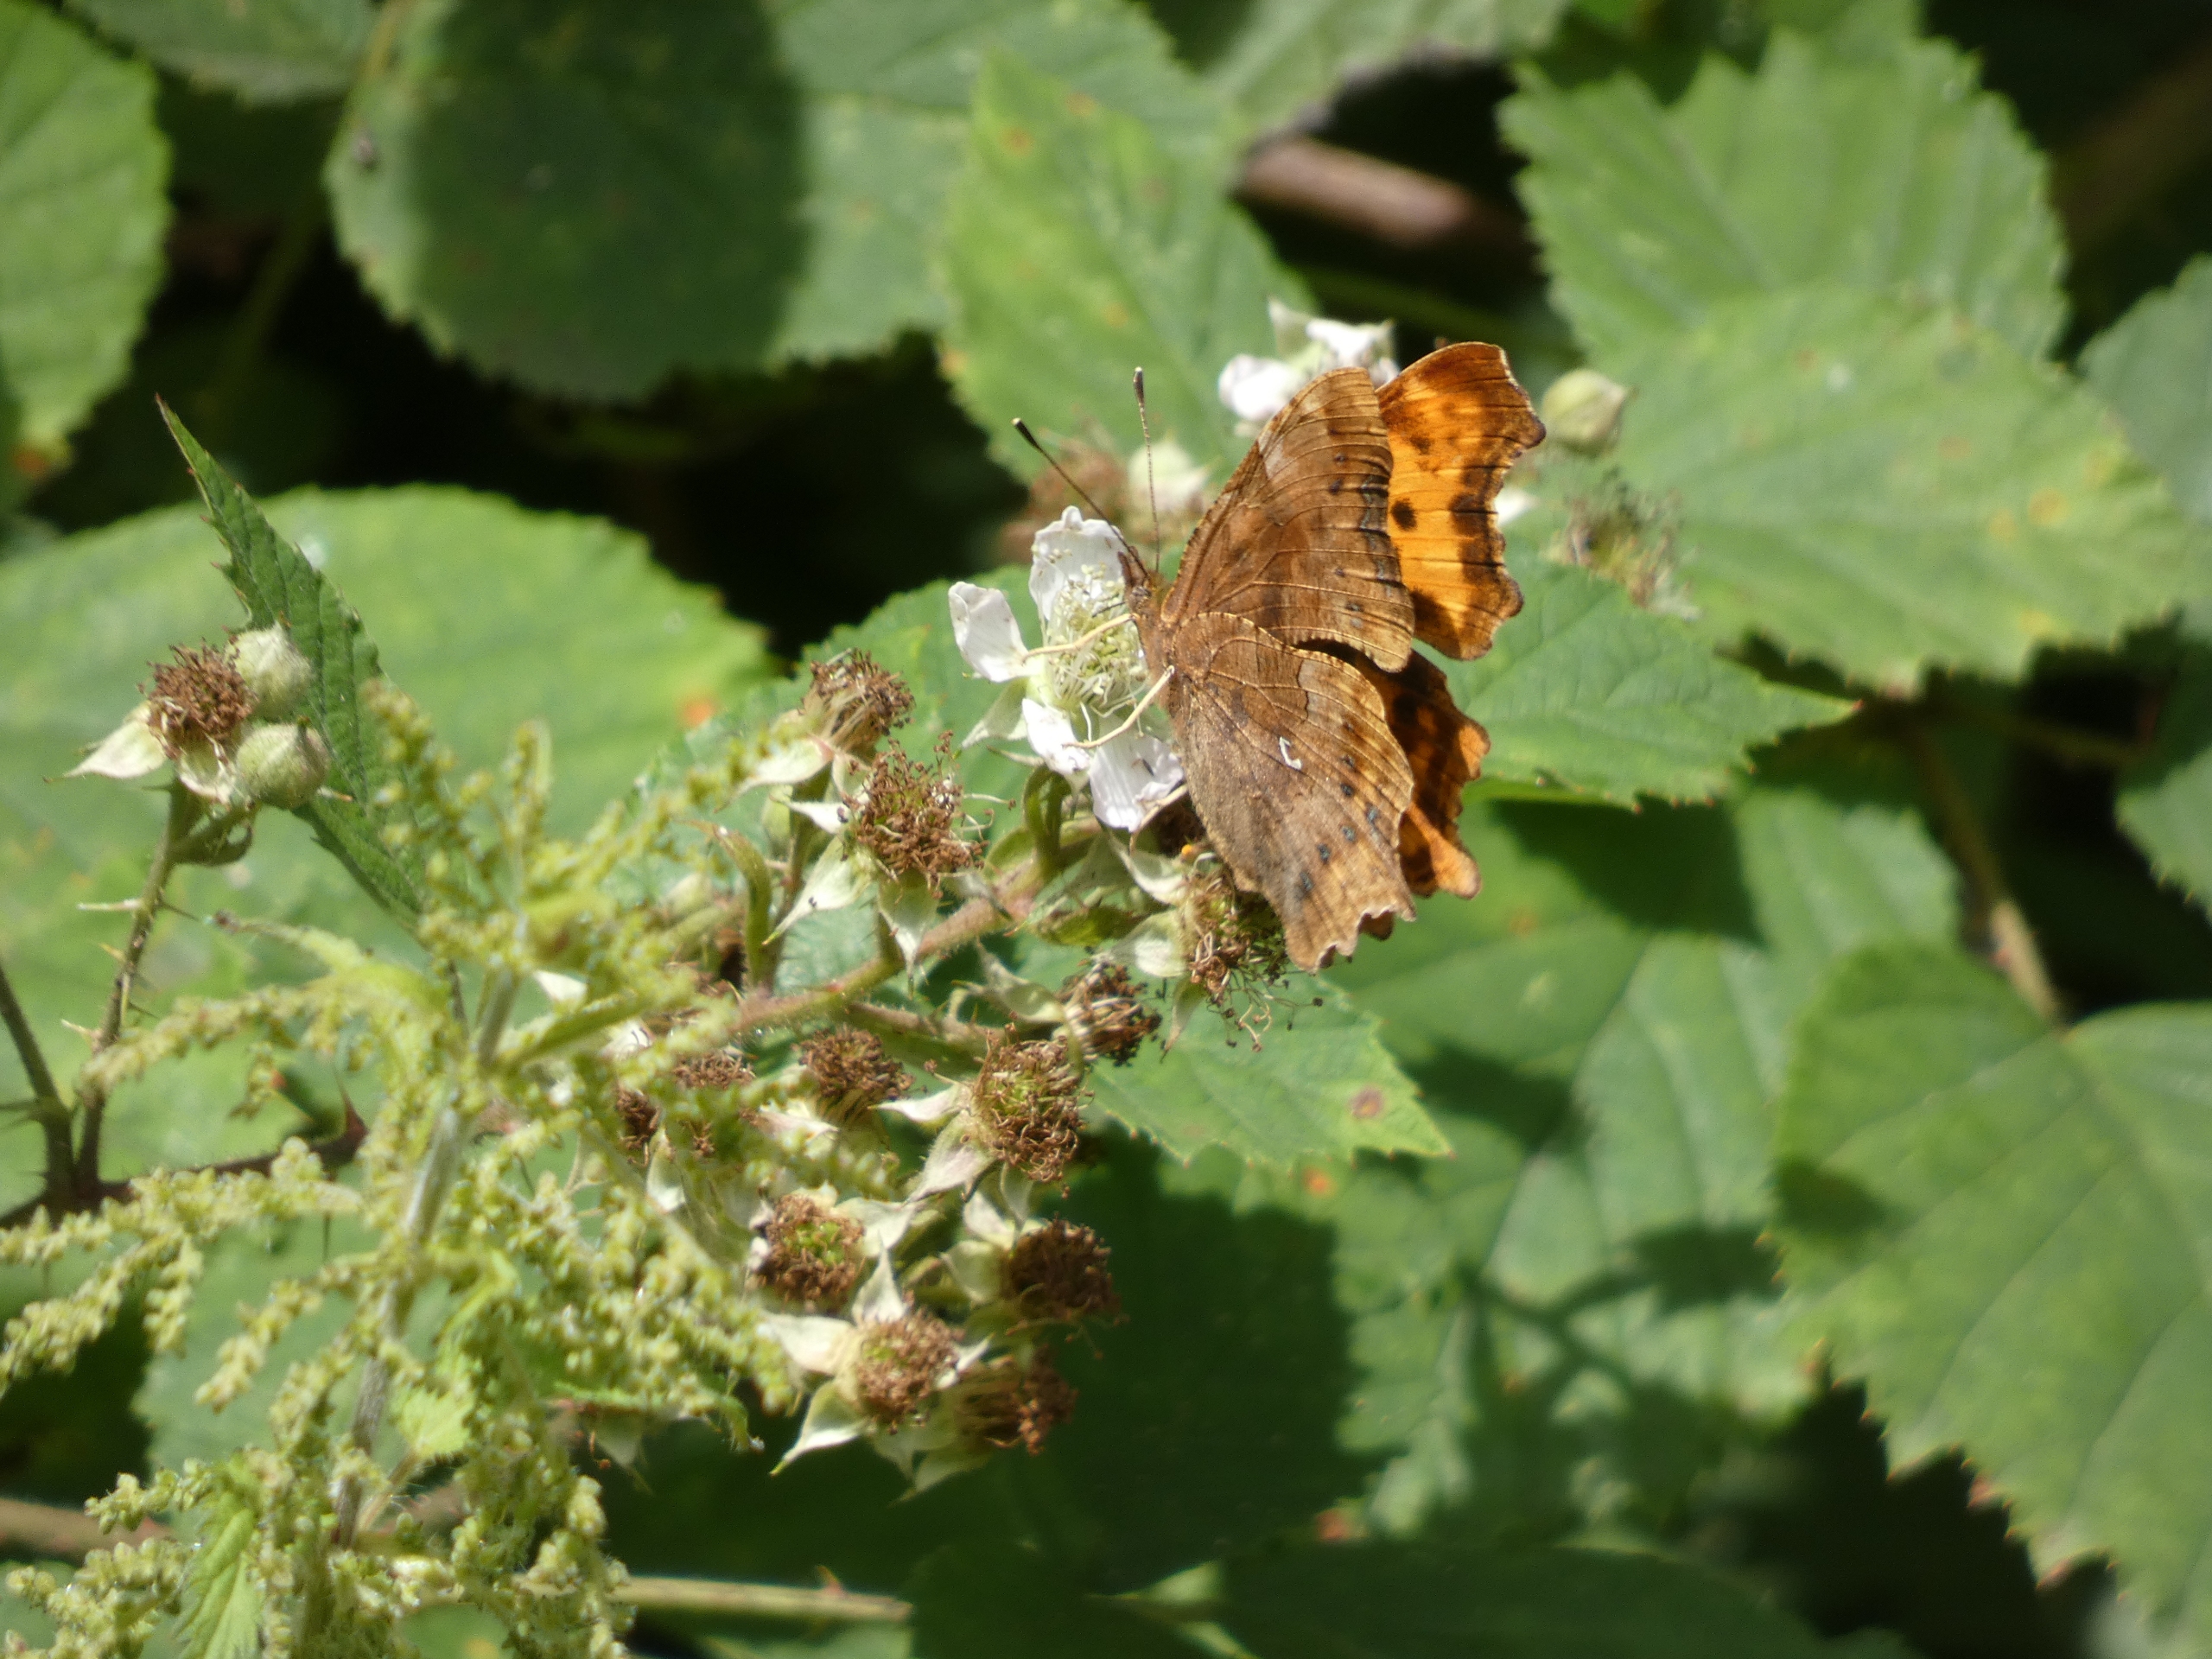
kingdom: Animalia
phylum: Arthropoda
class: Insecta
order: Lepidoptera
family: Nymphalidae
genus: Polygonia
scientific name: Polygonia c-album
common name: Det hvide C
